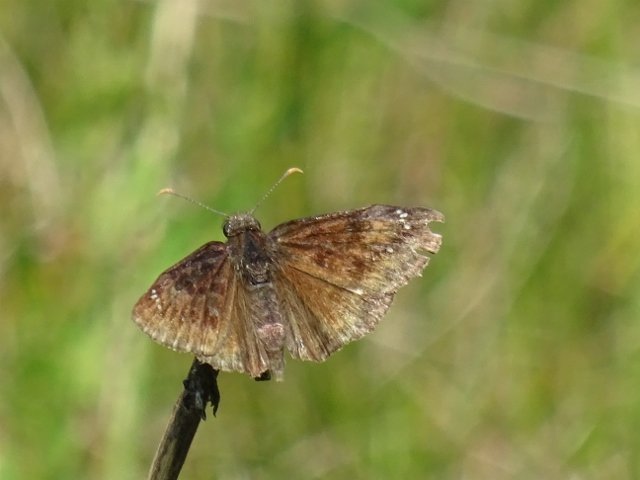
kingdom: Animalia
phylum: Arthropoda
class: Insecta
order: Lepidoptera
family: Hesperiidae
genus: Gesta
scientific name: Gesta
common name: Wild Indigo Duskywing
